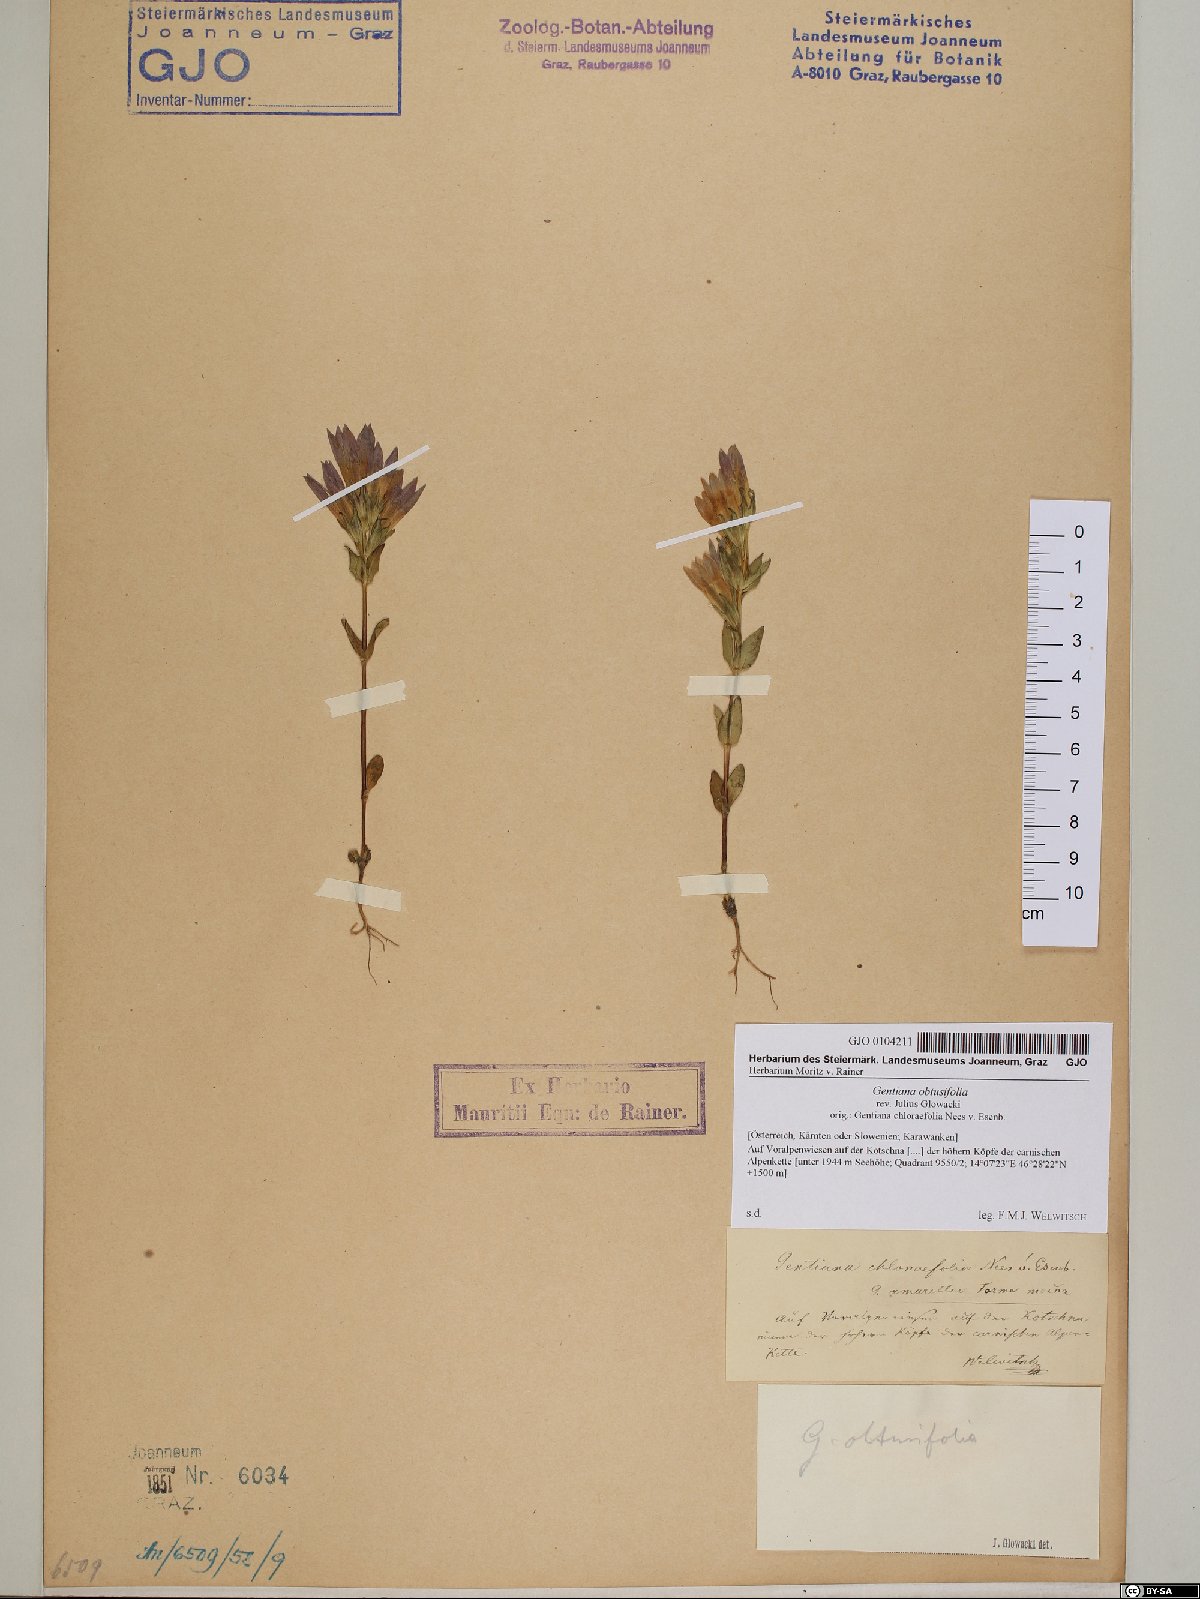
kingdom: Plantae
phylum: Tracheophyta
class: Magnoliopsida
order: Gentianales
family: Gentianaceae
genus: Gentianella
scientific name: Gentianella obtusifolia
